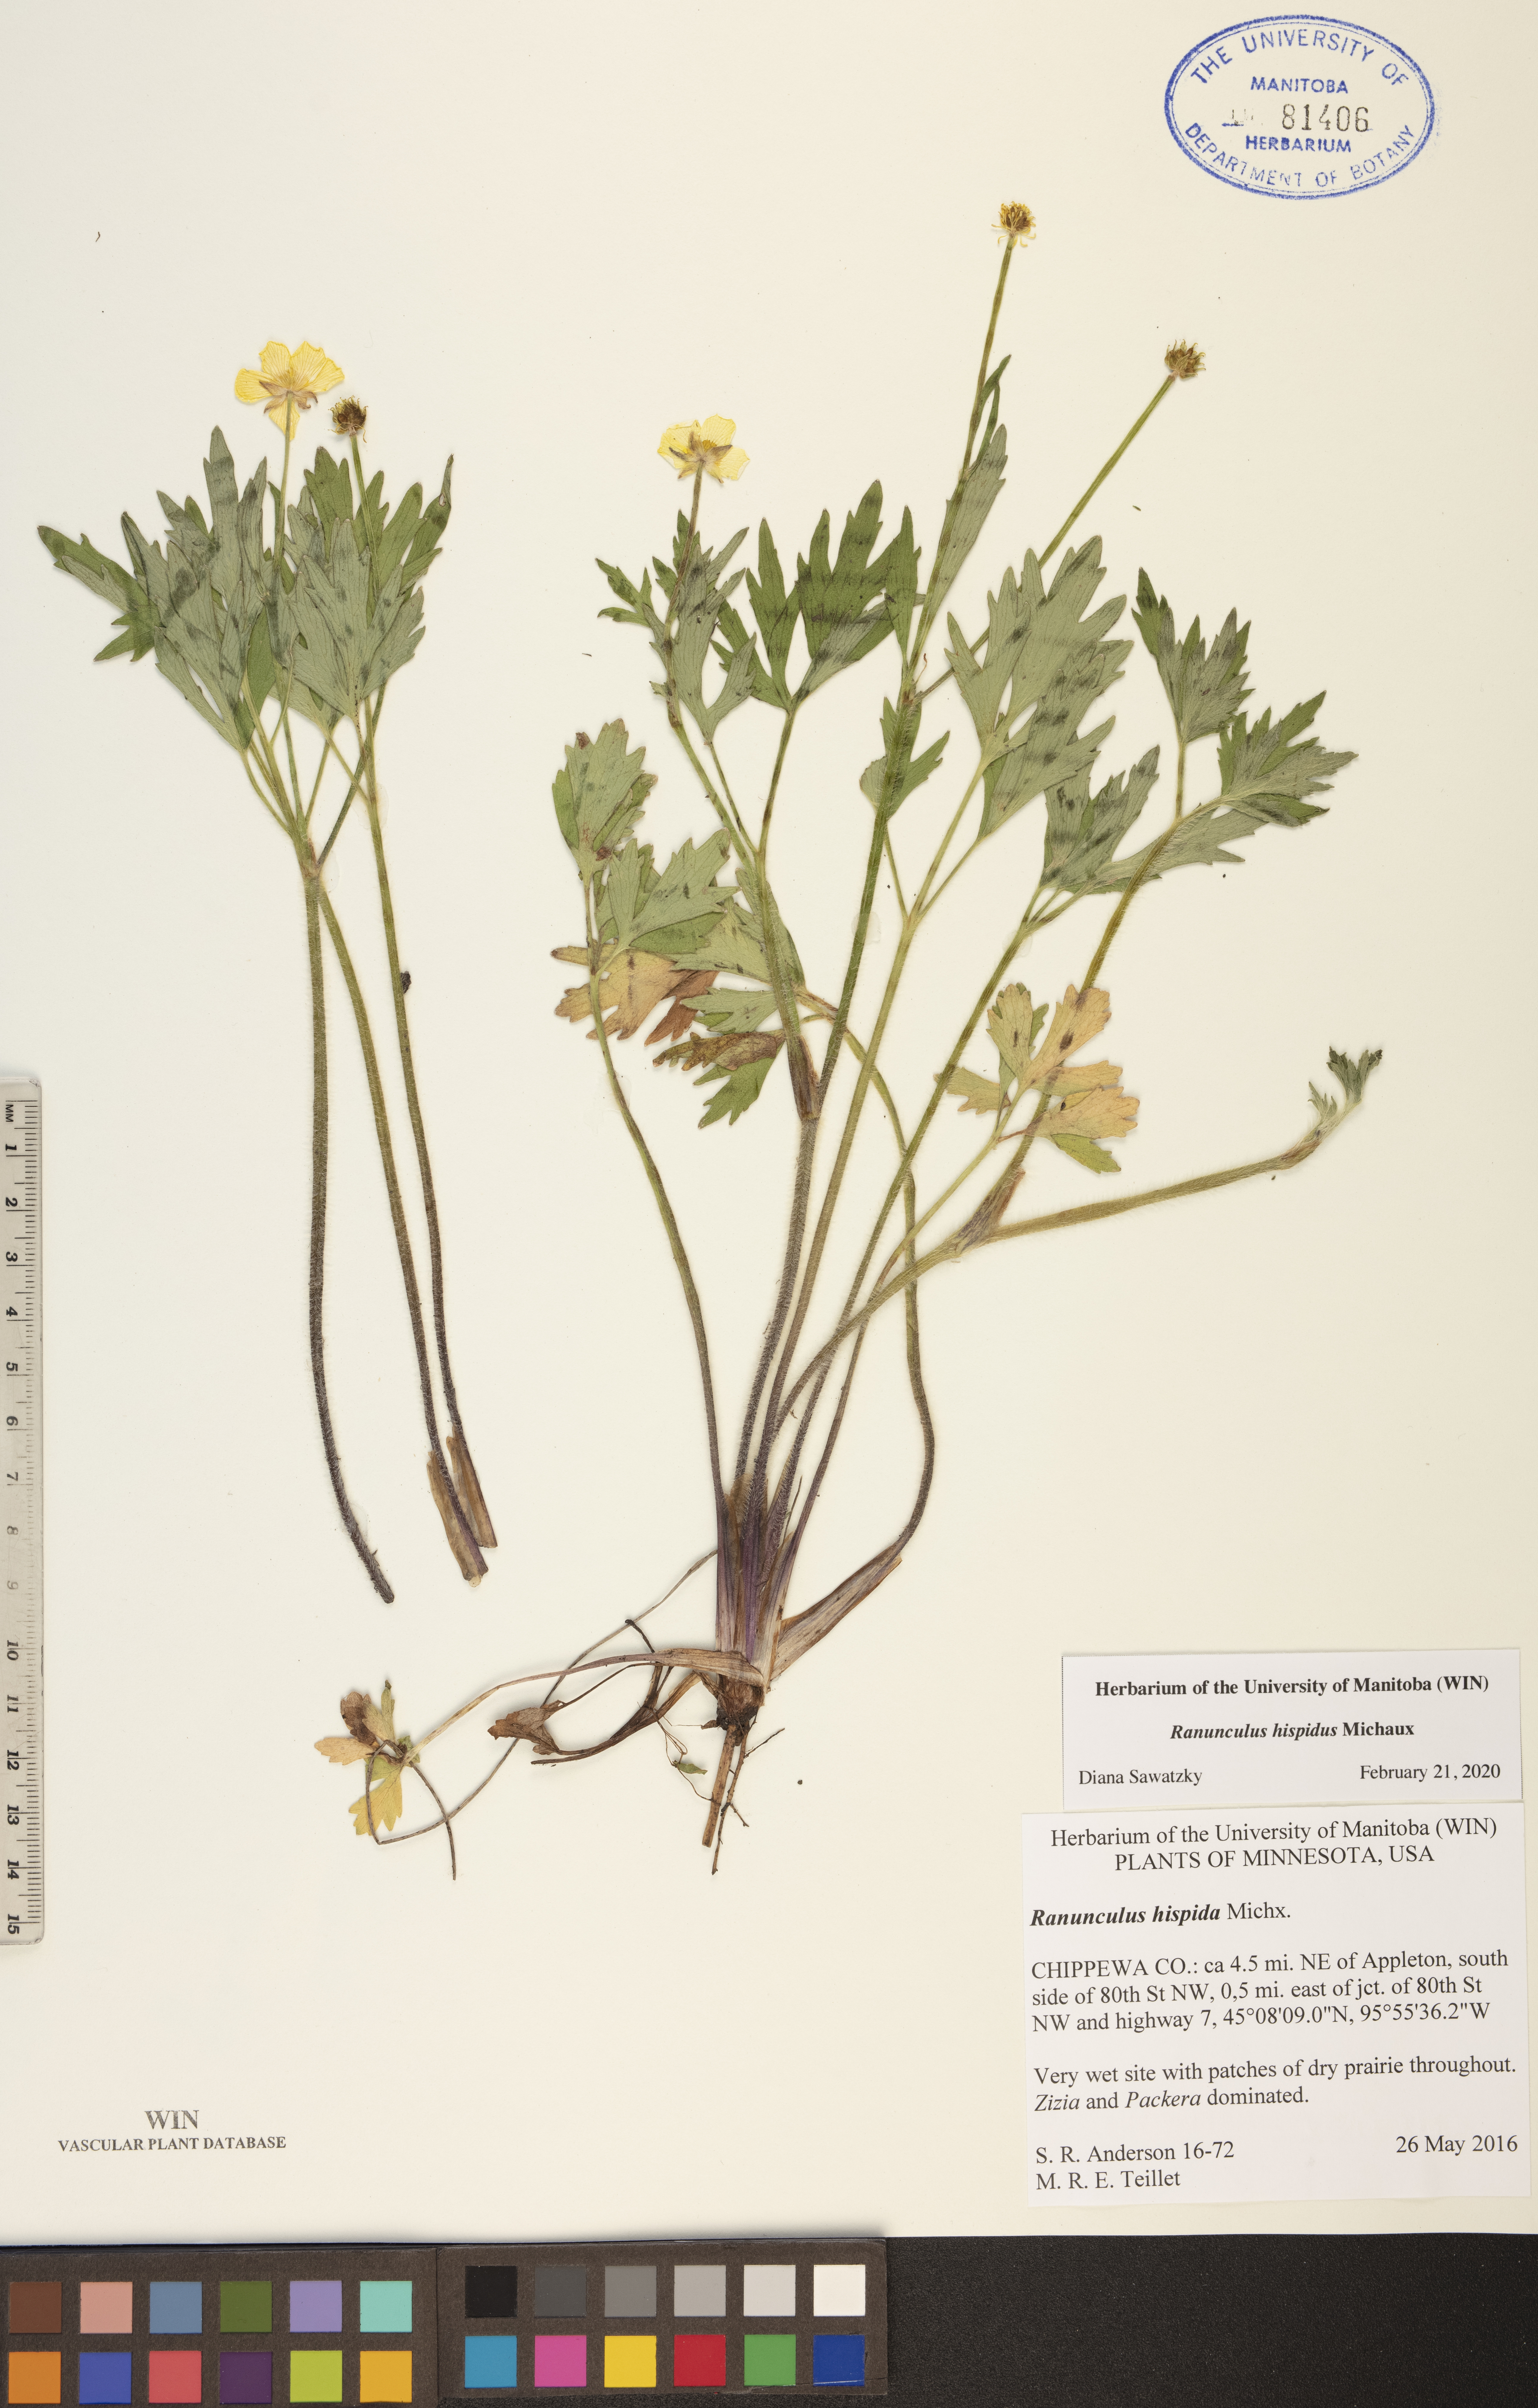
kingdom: Plantae
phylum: Tracheophyta
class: Magnoliopsida
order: Ranunculales
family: Ranunculaceae
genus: Ranunculus
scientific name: Ranunculus hispidus
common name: Bristly buttercup
